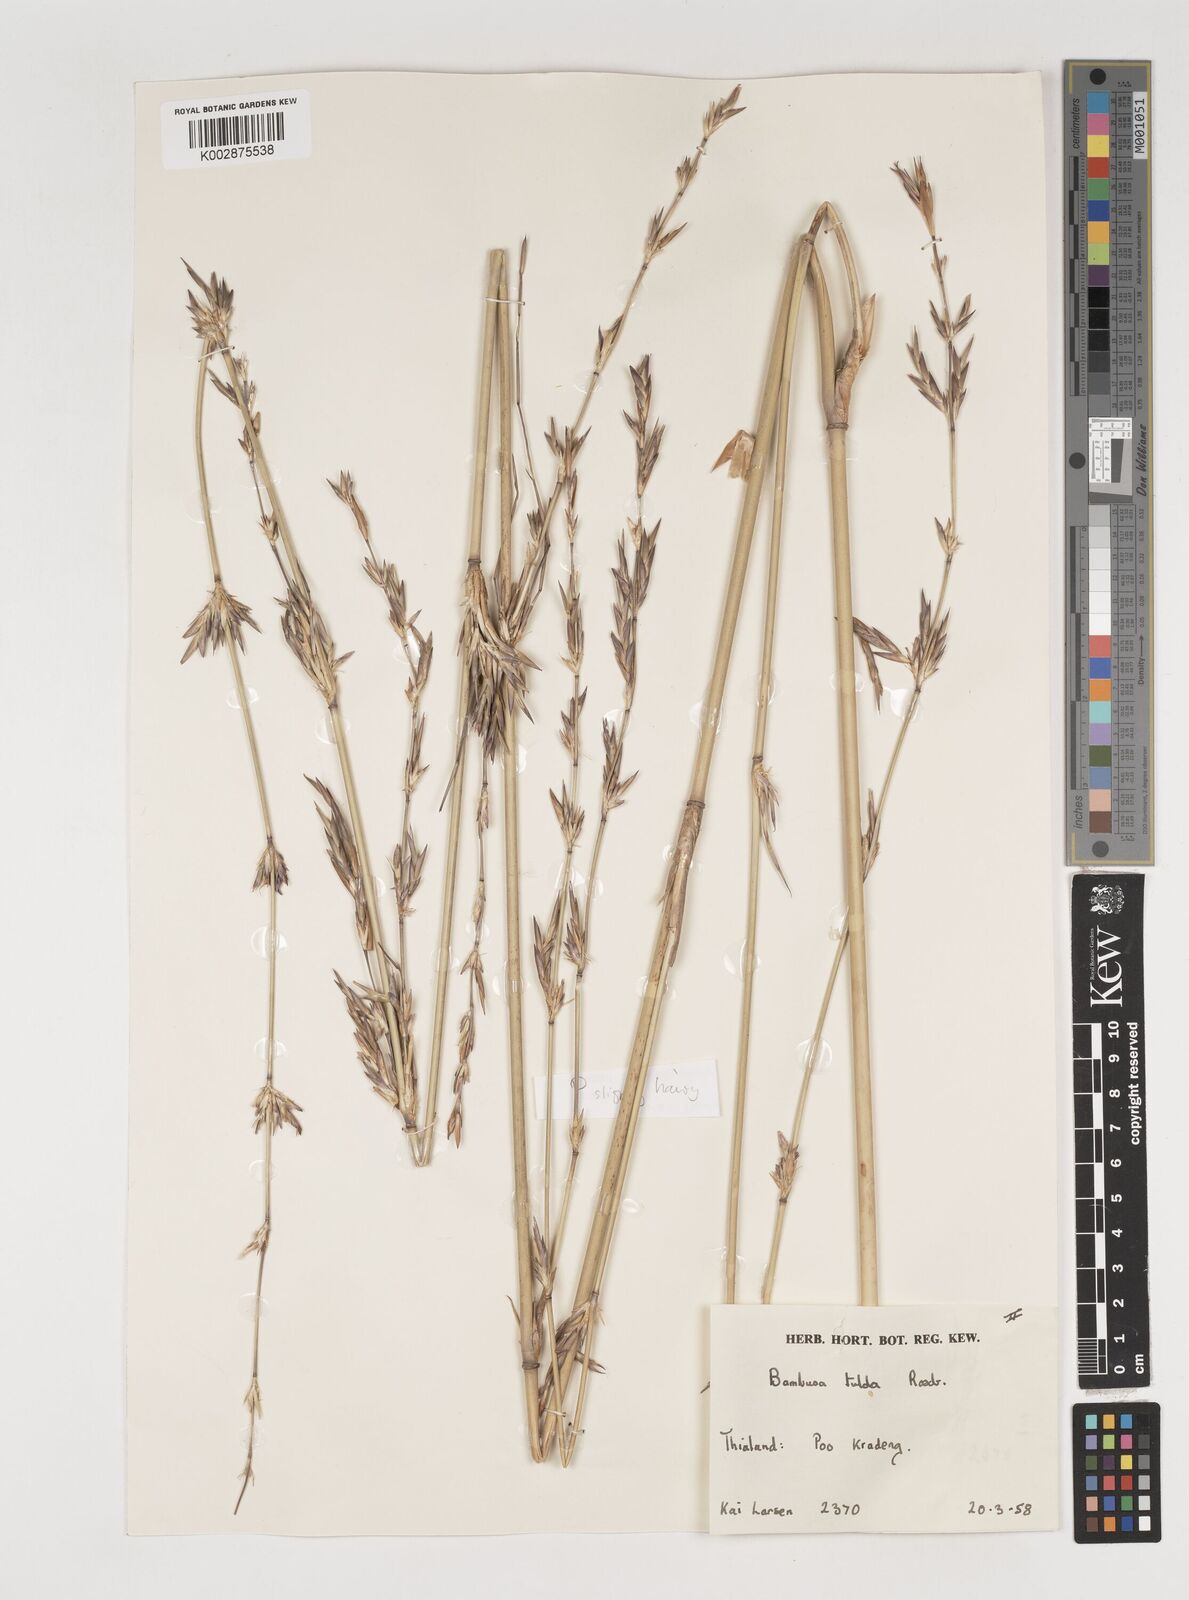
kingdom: Plantae
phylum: Tracheophyta
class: Liliopsida
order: Poales
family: Poaceae
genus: Vietnamosasa
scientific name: Vietnamosasa
